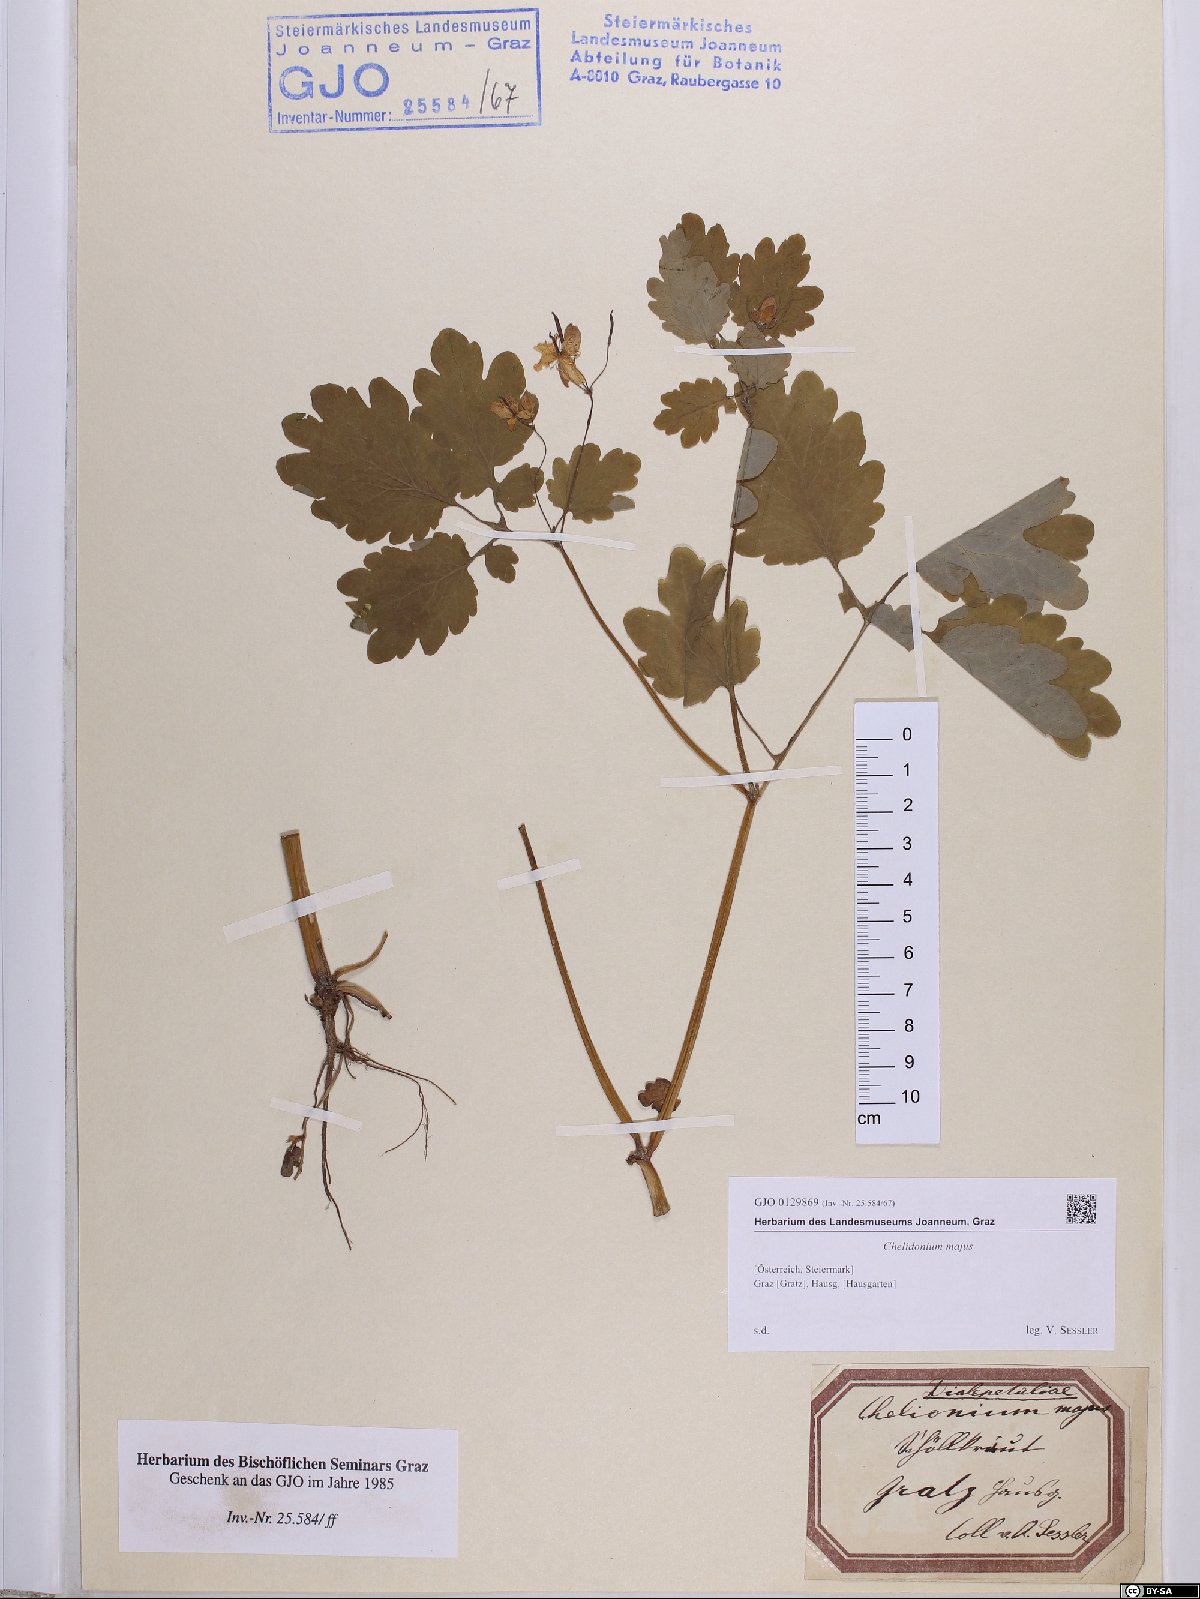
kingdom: Plantae
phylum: Tracheophyta
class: Magnoliopsida
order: Ranunculales
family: Papaveraceae
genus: Chelidonium
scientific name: Chelidonium majus
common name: Greater celandine
